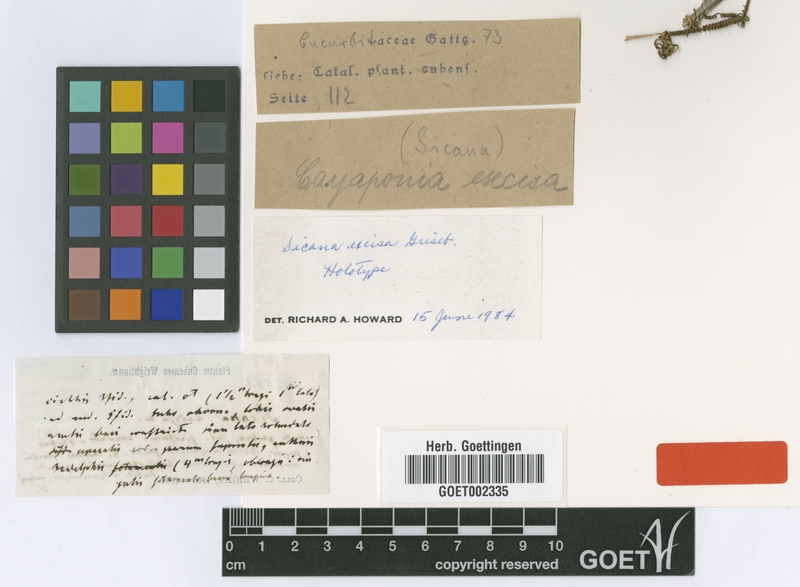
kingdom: Plantae
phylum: Tracheophyta
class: Magnoliopsida
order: Cucurbitales
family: Cucurbitaceae
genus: Cionosicys
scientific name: Cionosicys excisus
